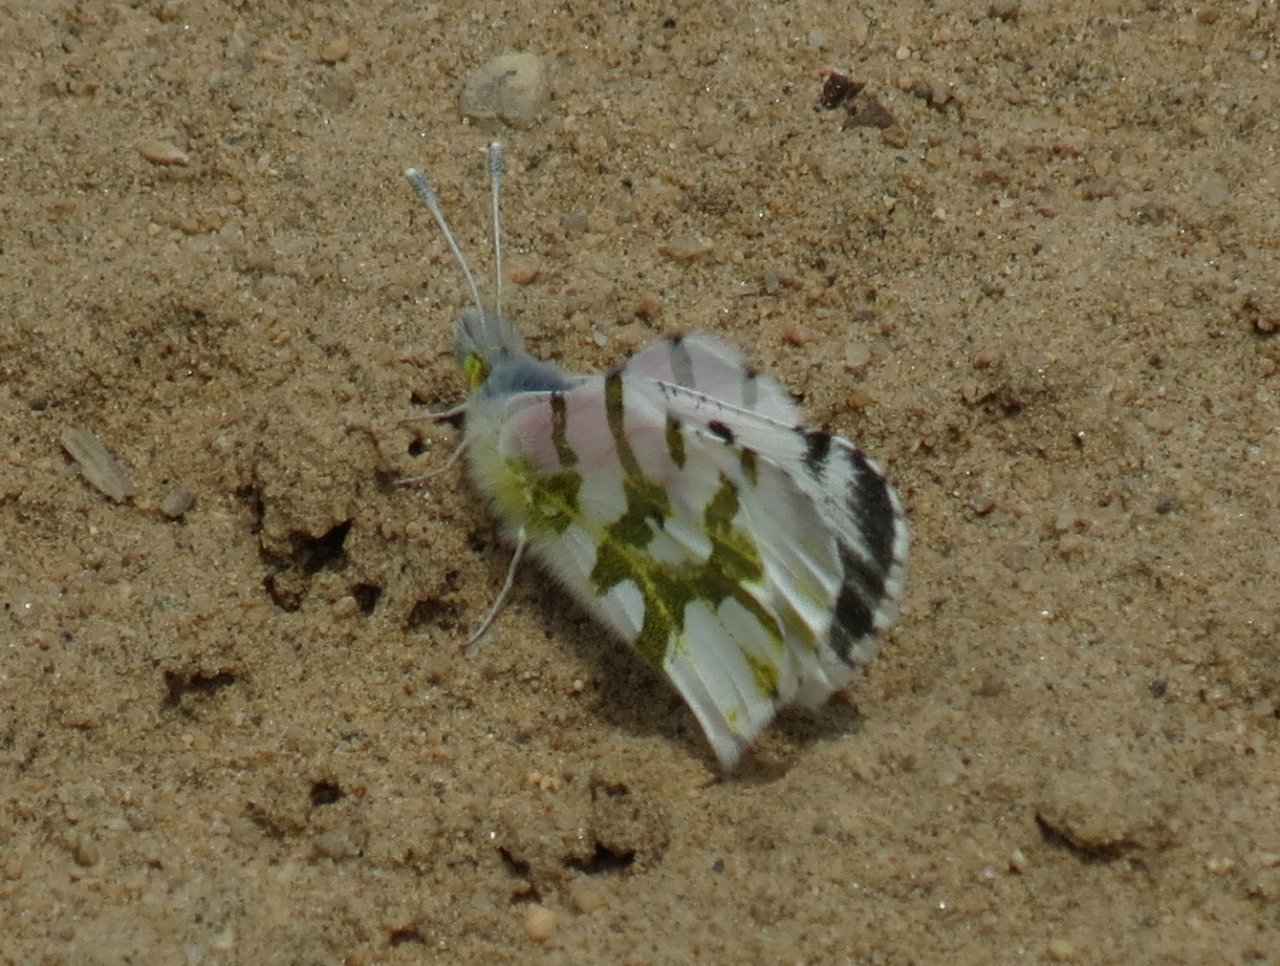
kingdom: Animalia
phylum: Arthropoda
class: Insecta
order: Lepidoptera
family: Pieridae
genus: Euchloe
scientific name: Euchloe olympia
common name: Olympia Marble
